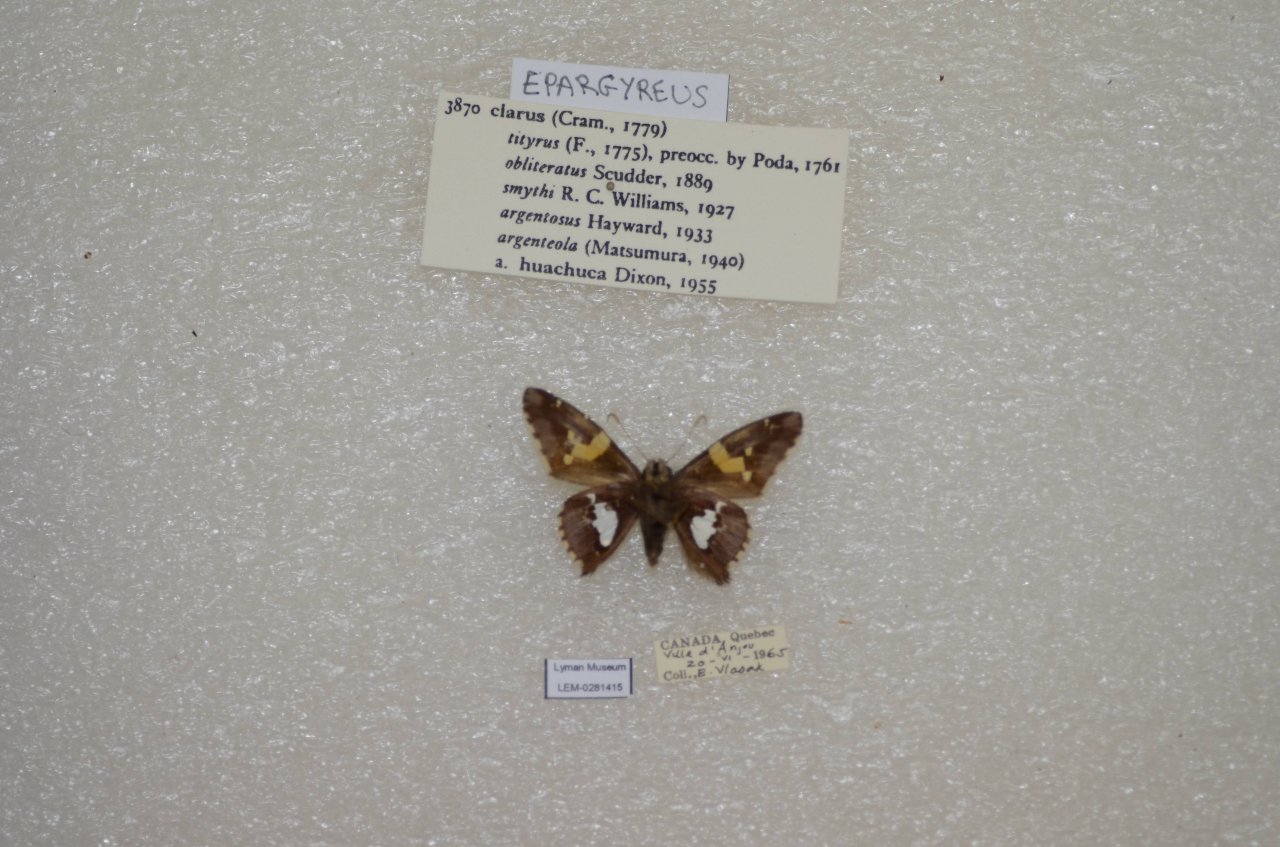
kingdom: Animalia
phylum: Arthropoda
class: Insecta
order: Lepidoptera
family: Hesperiidae
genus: Epargyreus
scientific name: Epargyreus clarus
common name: Silver-spotted Skipper
